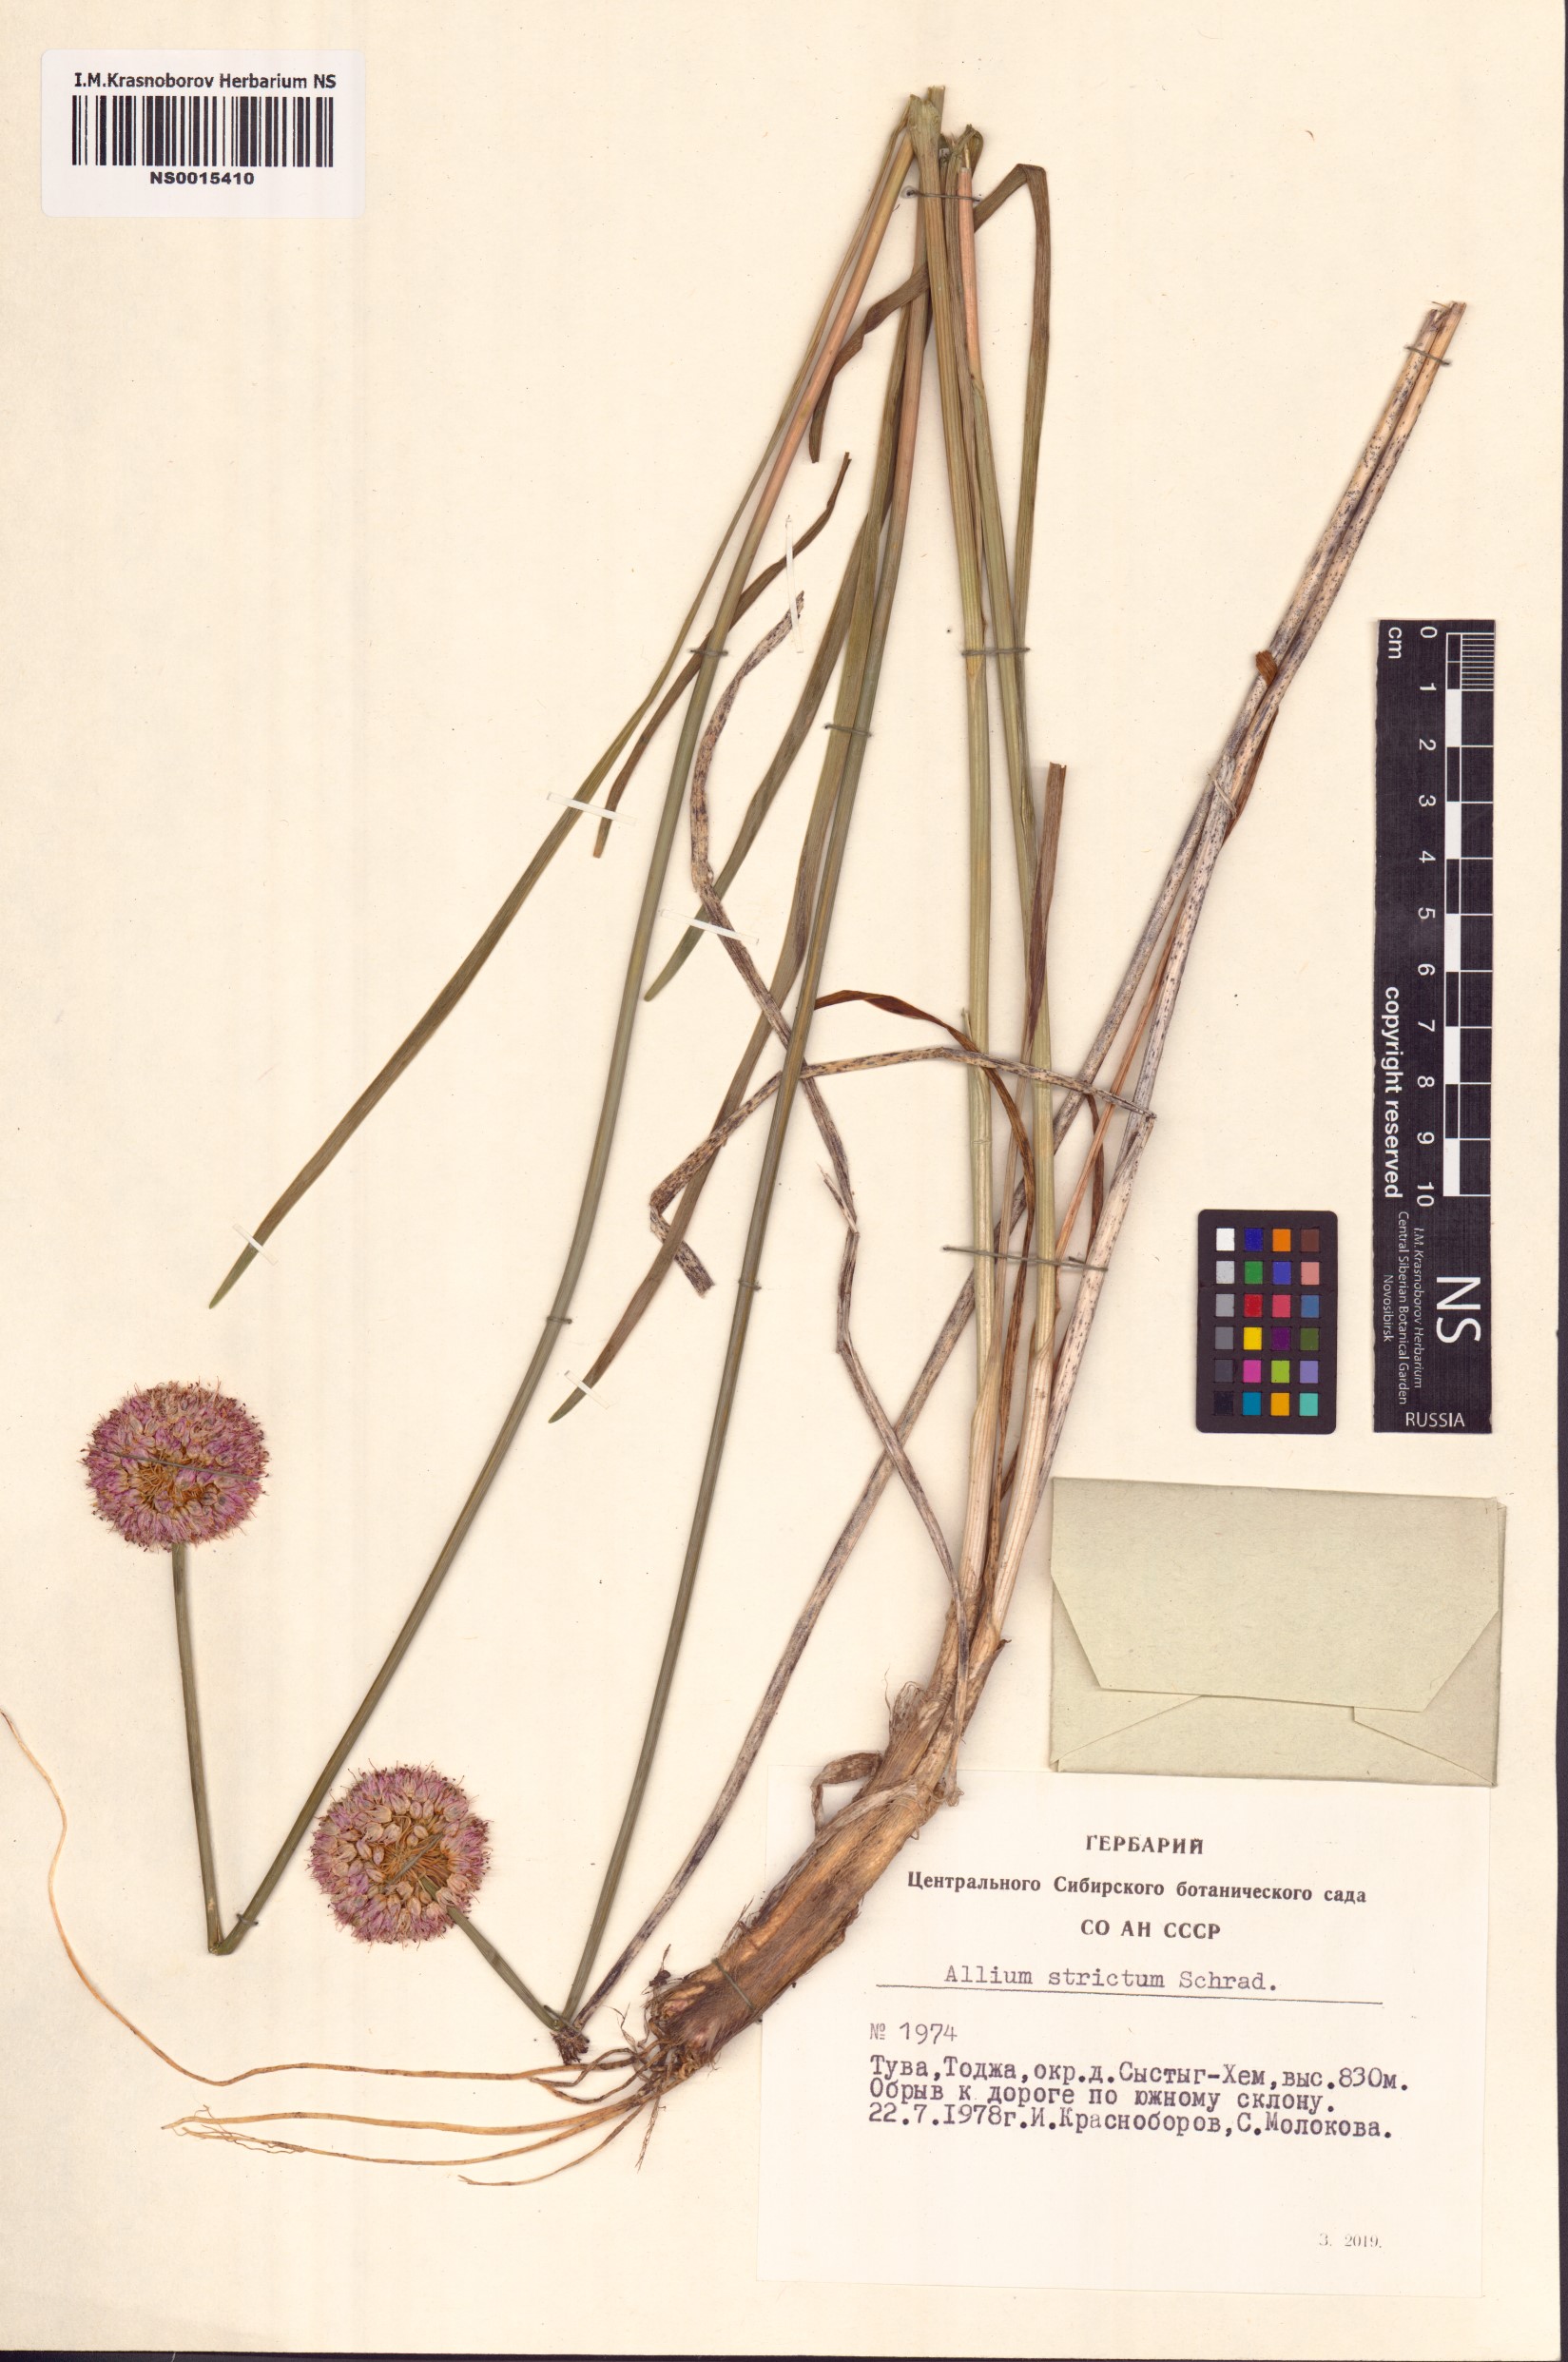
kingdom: Plantae
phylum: Tracheophyta
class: Liliopsida
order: Asparagales
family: Amaryllidaceae
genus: Allium
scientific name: Allium strictum
